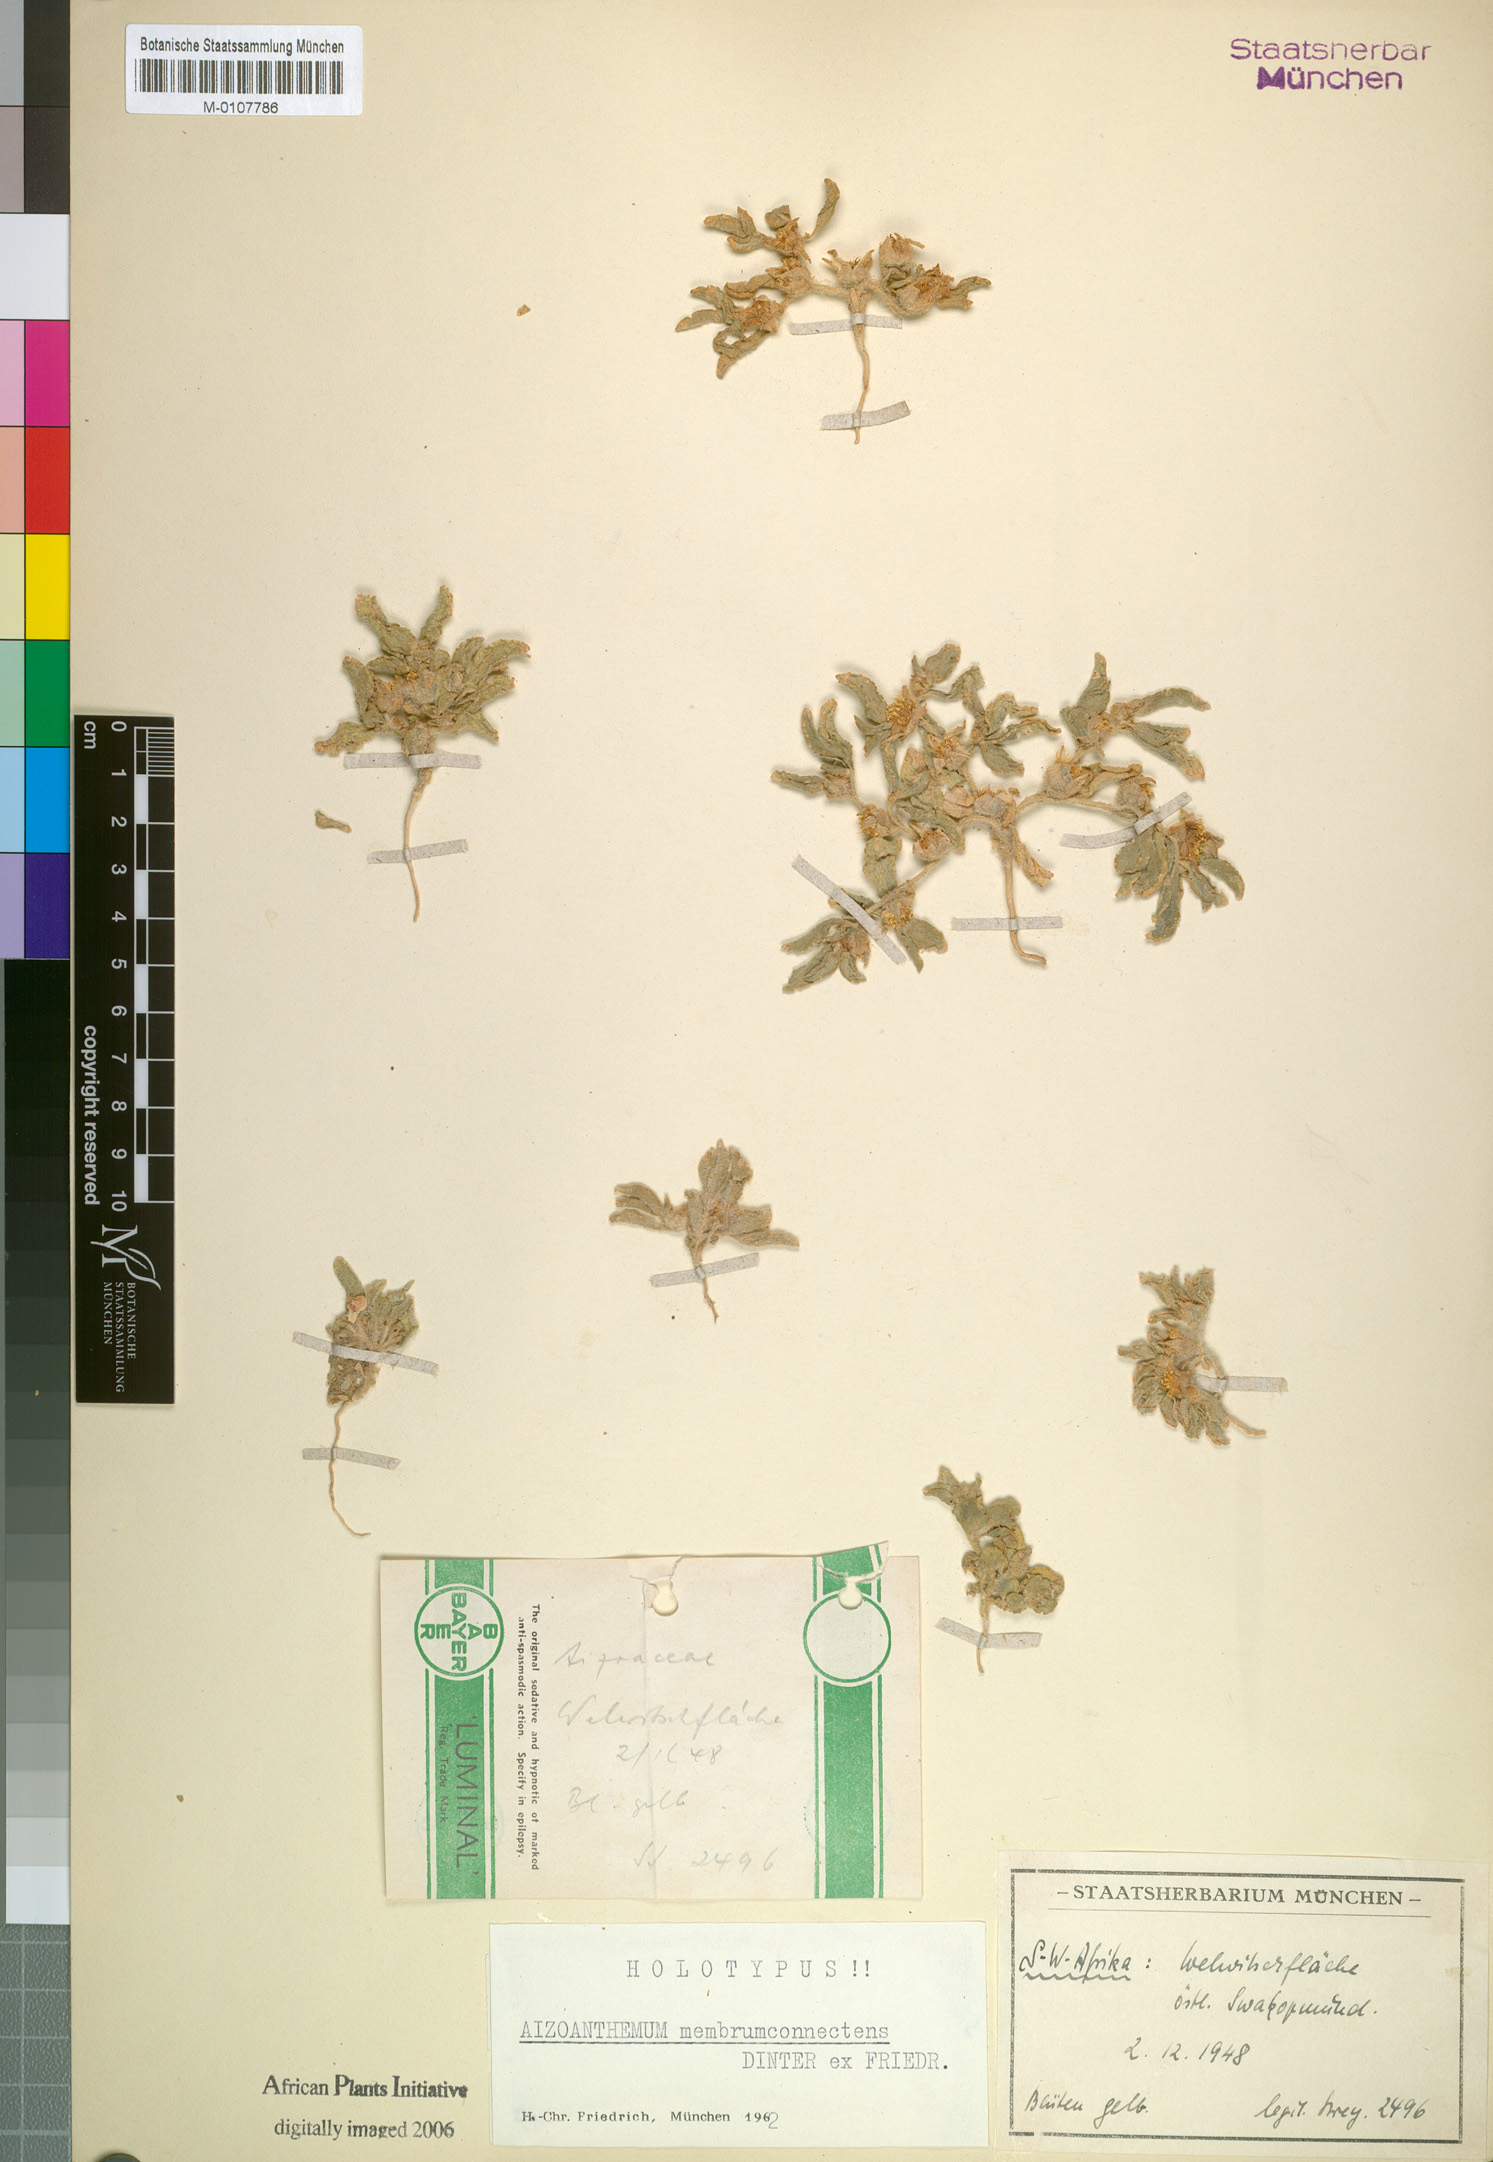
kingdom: Plantae
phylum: Tracheophyta
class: Magnoliopsida
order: Caryophyllales
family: Aizoaceae
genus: Aizoanthemum
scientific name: Aizoanthemum rehmannii
